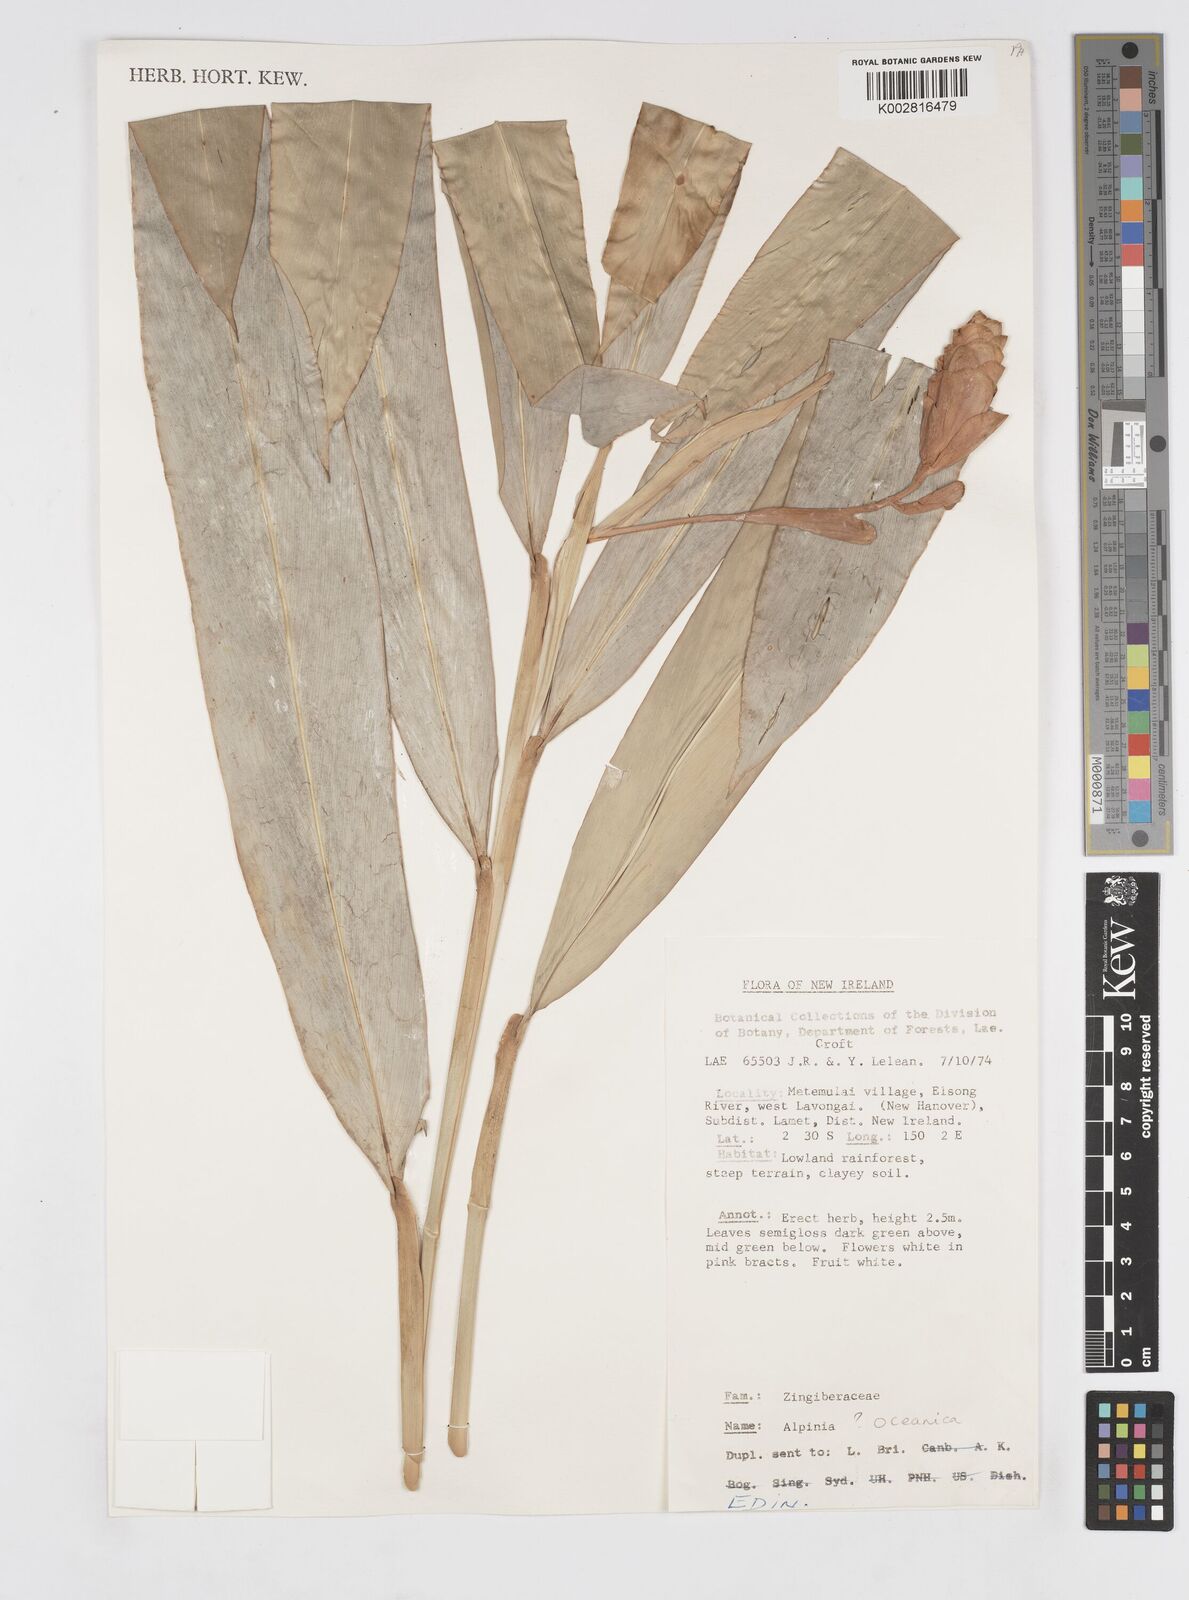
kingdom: Plantae
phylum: Tracheophyta
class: Liliopsida
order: Zingiberales
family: Zingiberaceae
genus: Alpinia
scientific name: Alpinia
